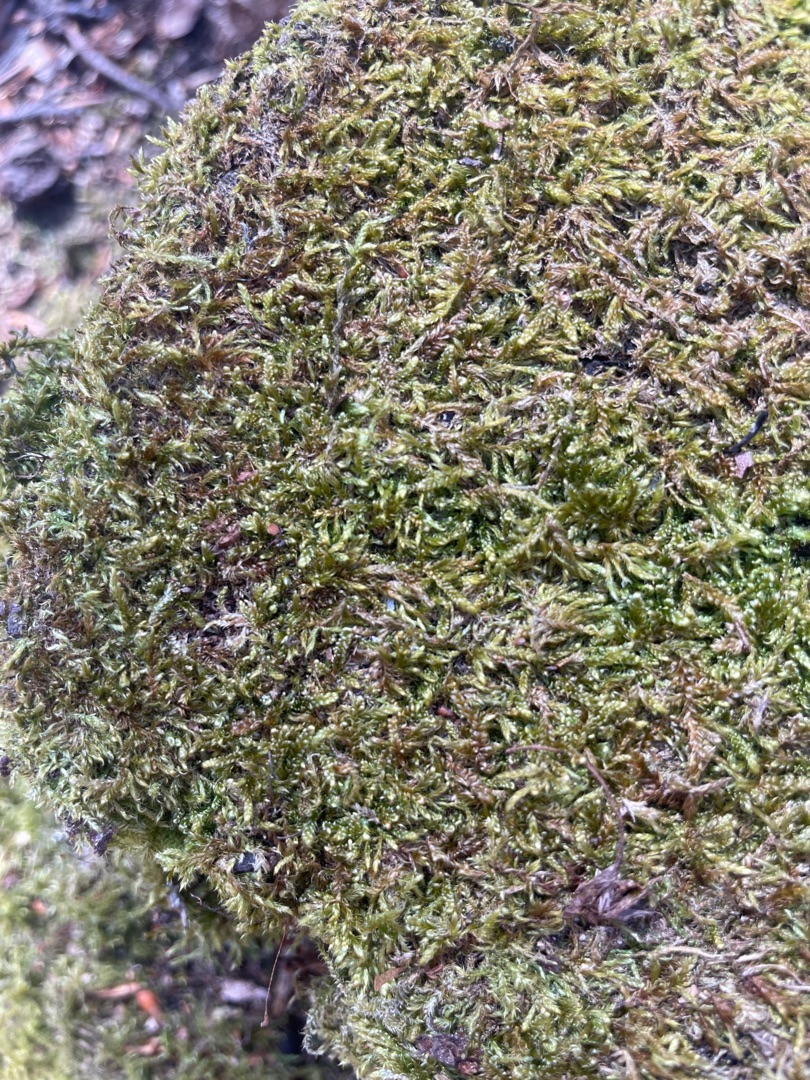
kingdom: Plantae
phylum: Bryophyta
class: Bryopsida
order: Hypnales
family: Hypnaceae
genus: Hypnum
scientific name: Hypnum
